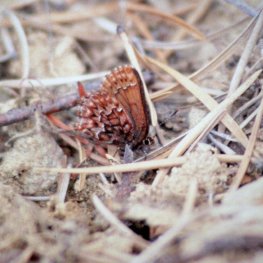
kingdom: Animalia
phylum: Arthropoda
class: Insecta
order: Lepidoptera
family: Lycaenidae
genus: Incisalia
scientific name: Incisalia eryphon
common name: Western Pine Elfin
